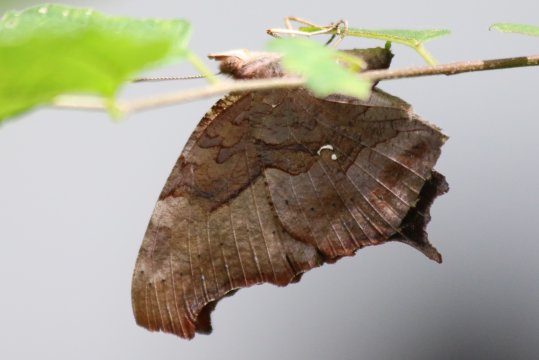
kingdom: Animalia
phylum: Arthropoda
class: Insecta
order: Lepidoptera
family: Nymphalidae
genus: Polygonia
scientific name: Polygonia interrogationis
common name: Question Mark
